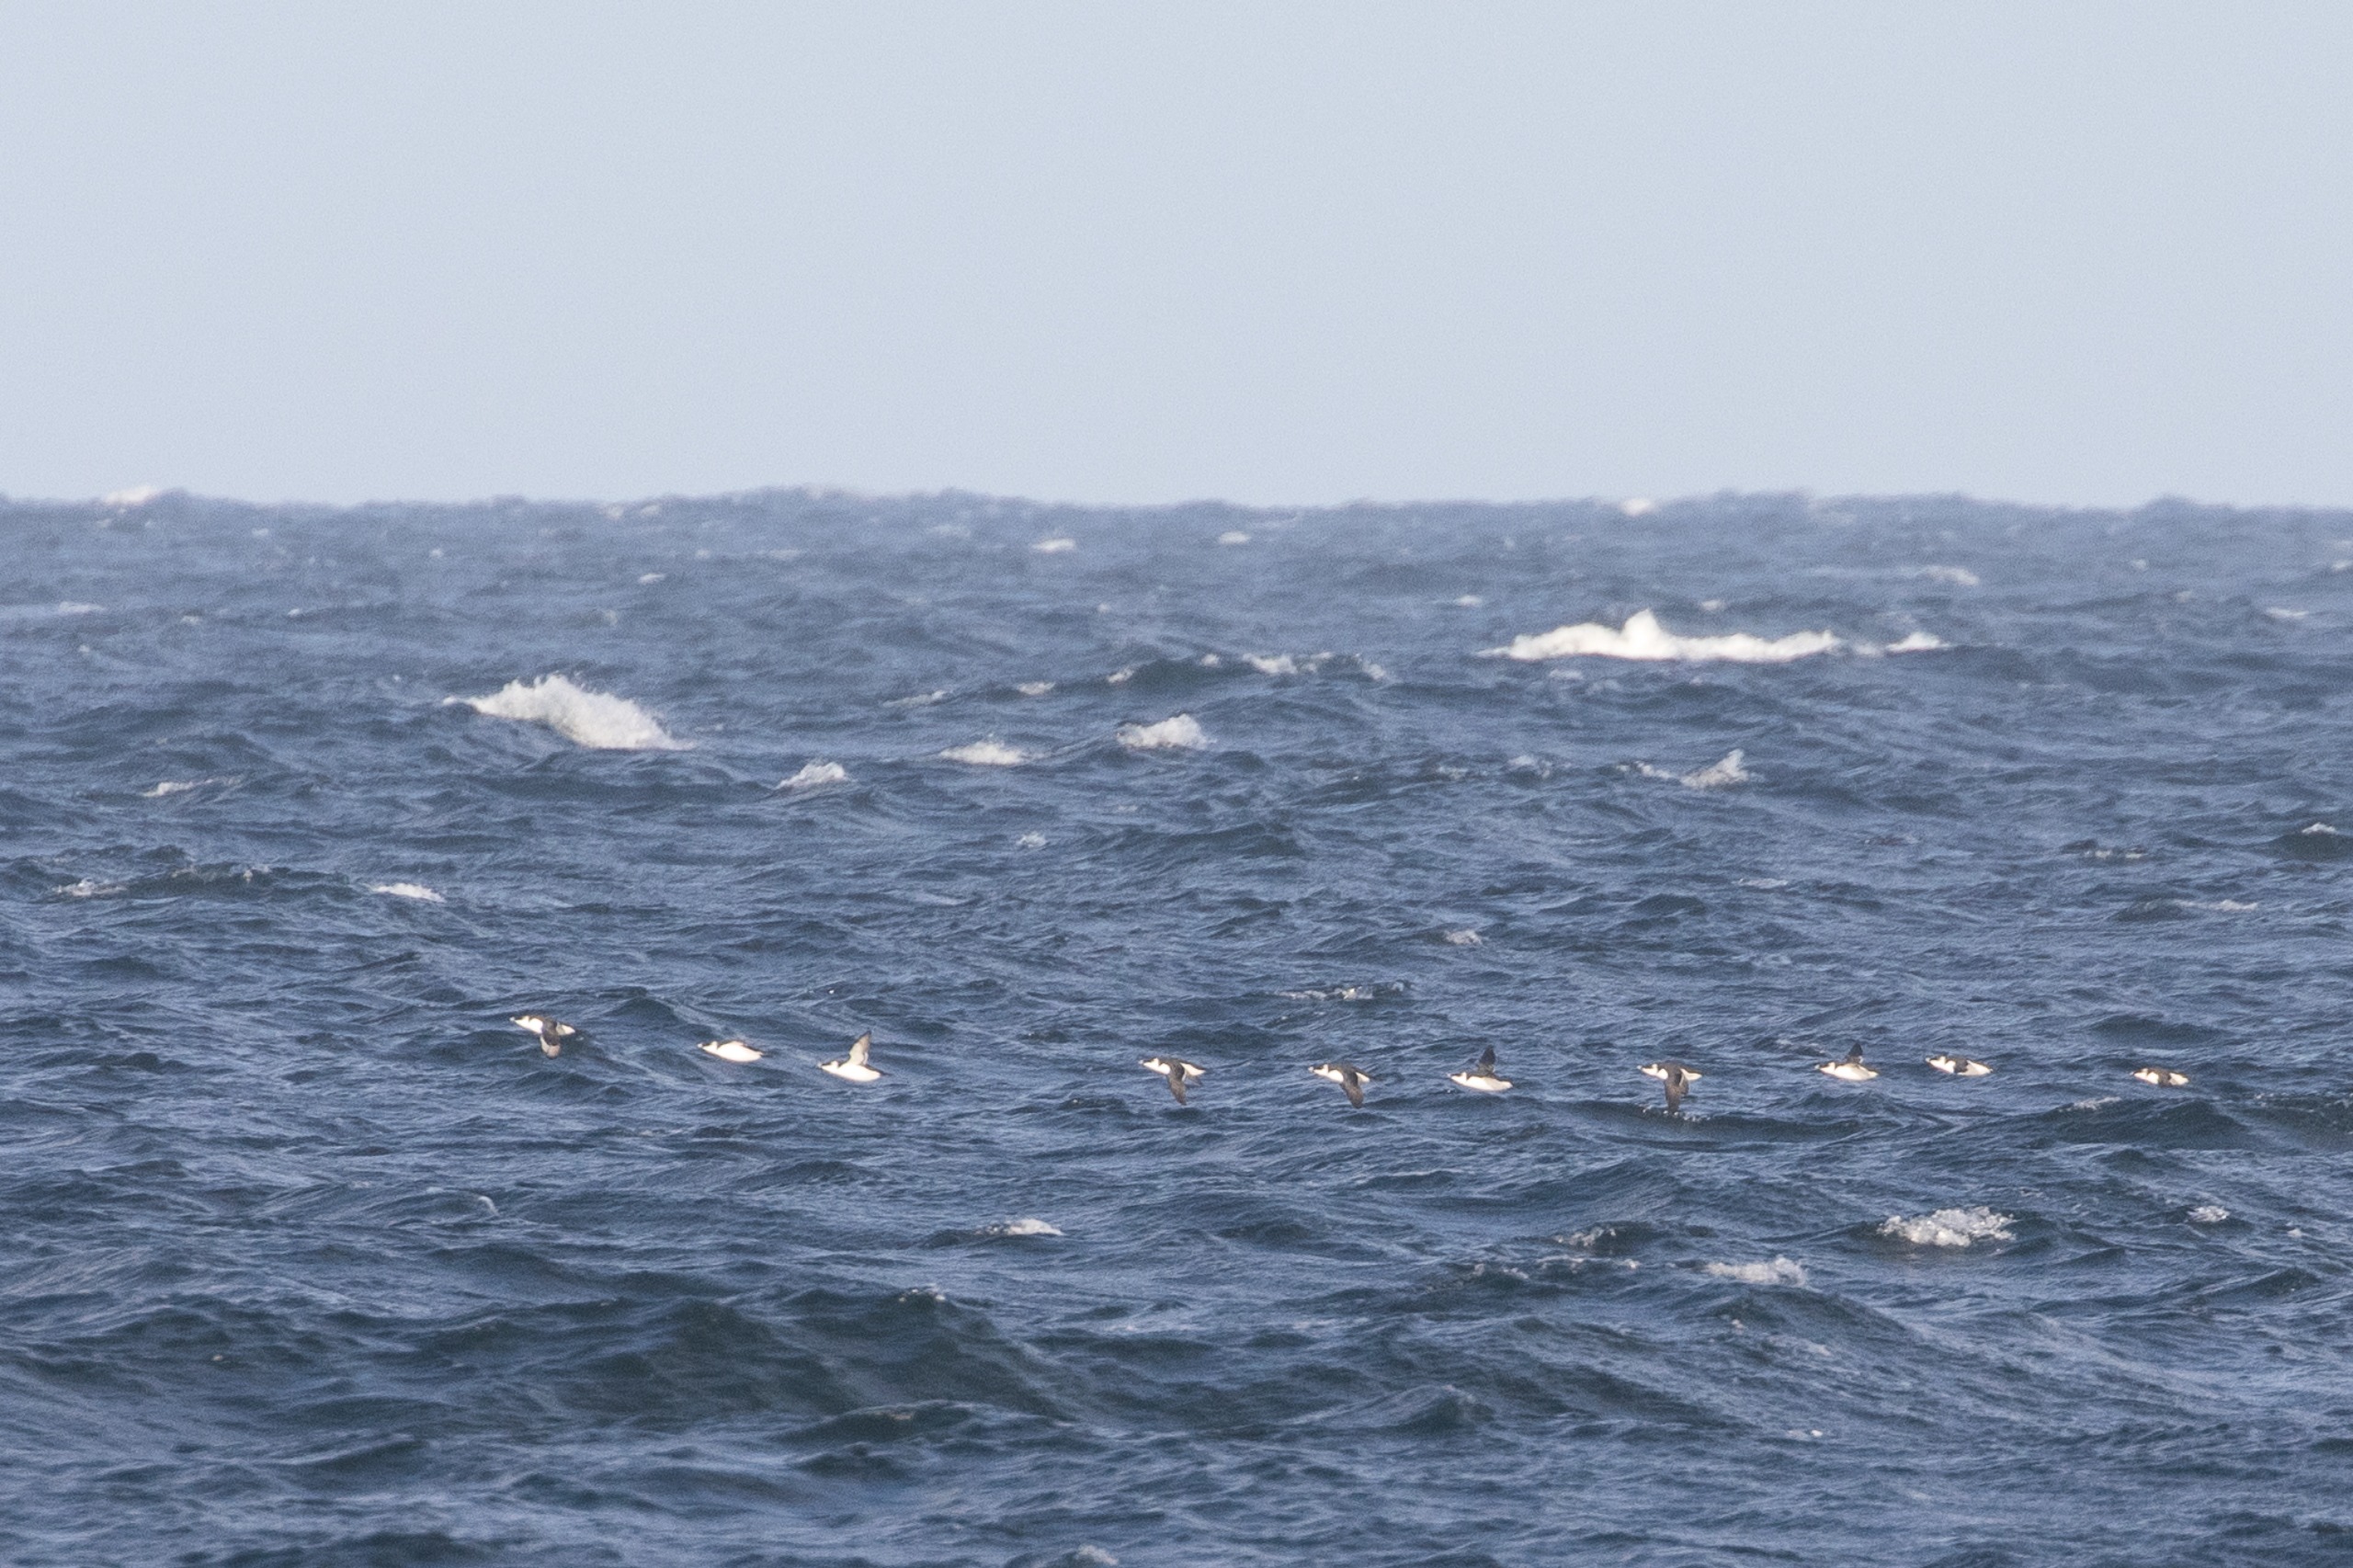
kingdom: Animalia
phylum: Chordata
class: Aves
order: Charadriiformes
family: Alcidae
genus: Alca
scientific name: Alca torda
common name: Alk
